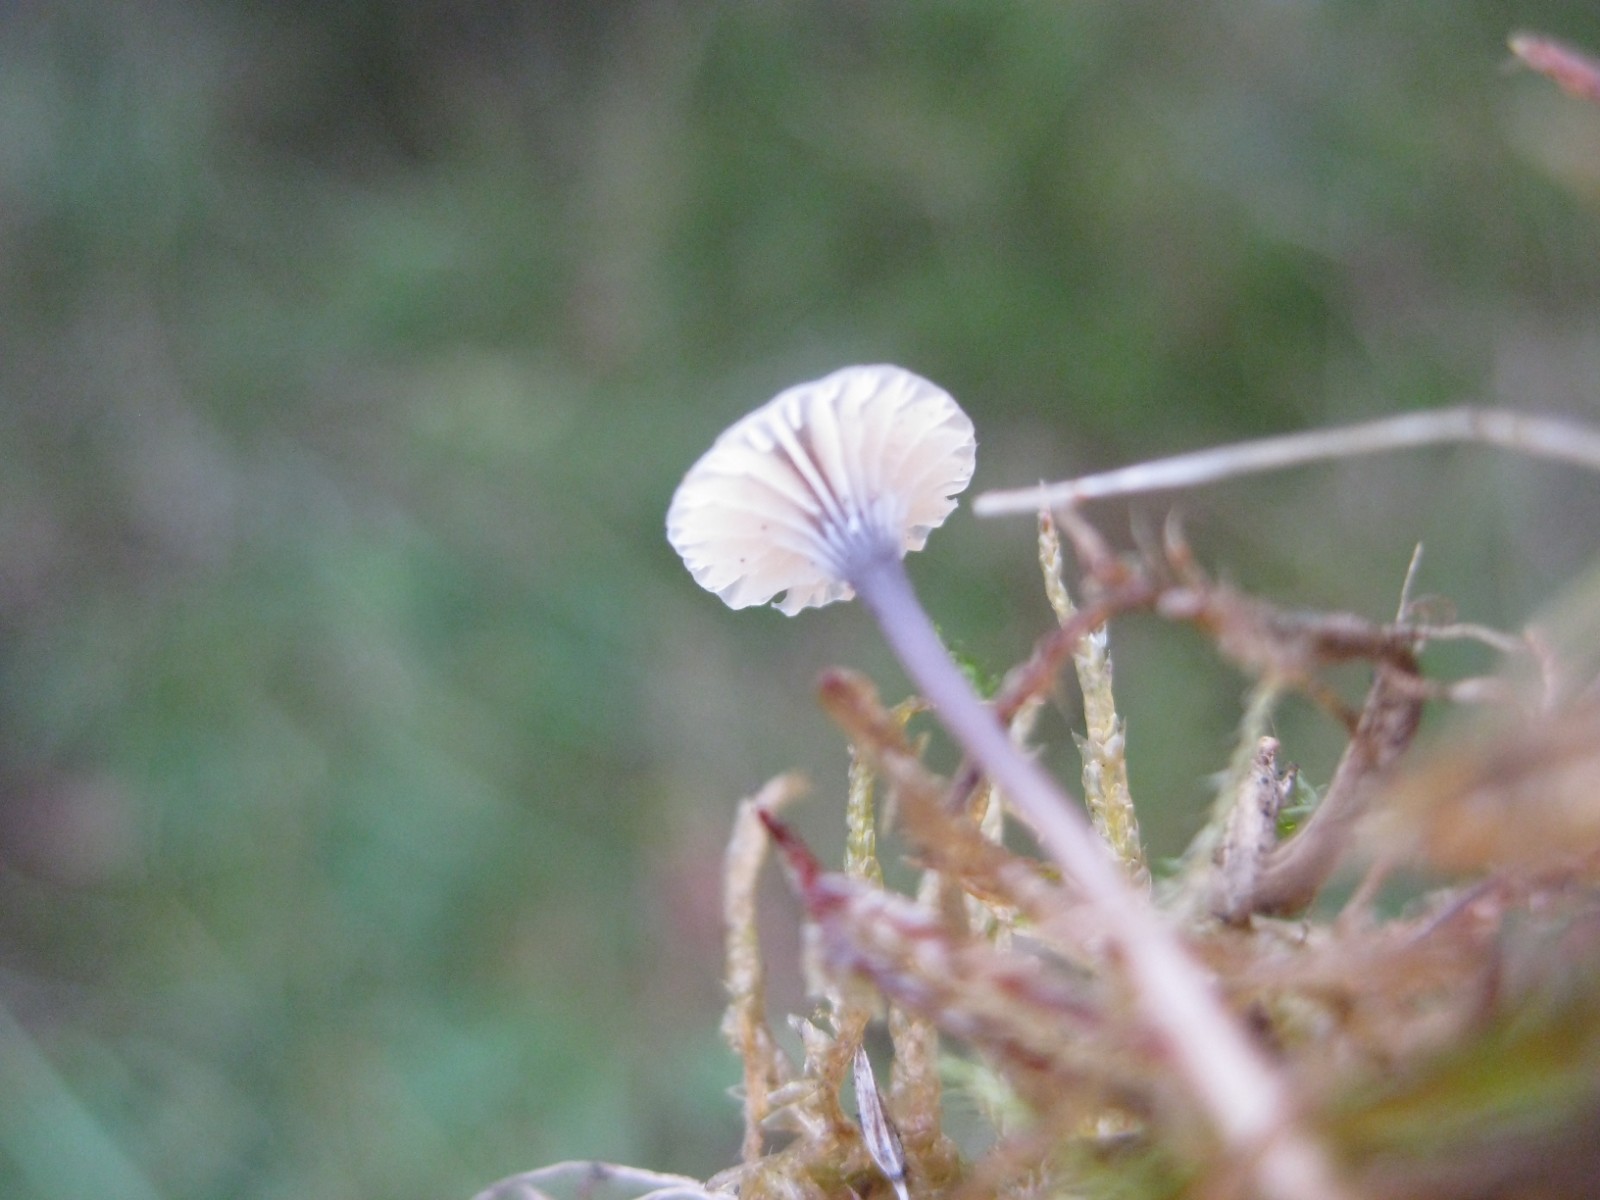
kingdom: Fungi
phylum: Basidiomycota
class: Agaricomycetes
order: Hymenochaetales
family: Rickenellaceae
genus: Rickenella
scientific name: Rickenella swartzii
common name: finstokket mosnavlehat
